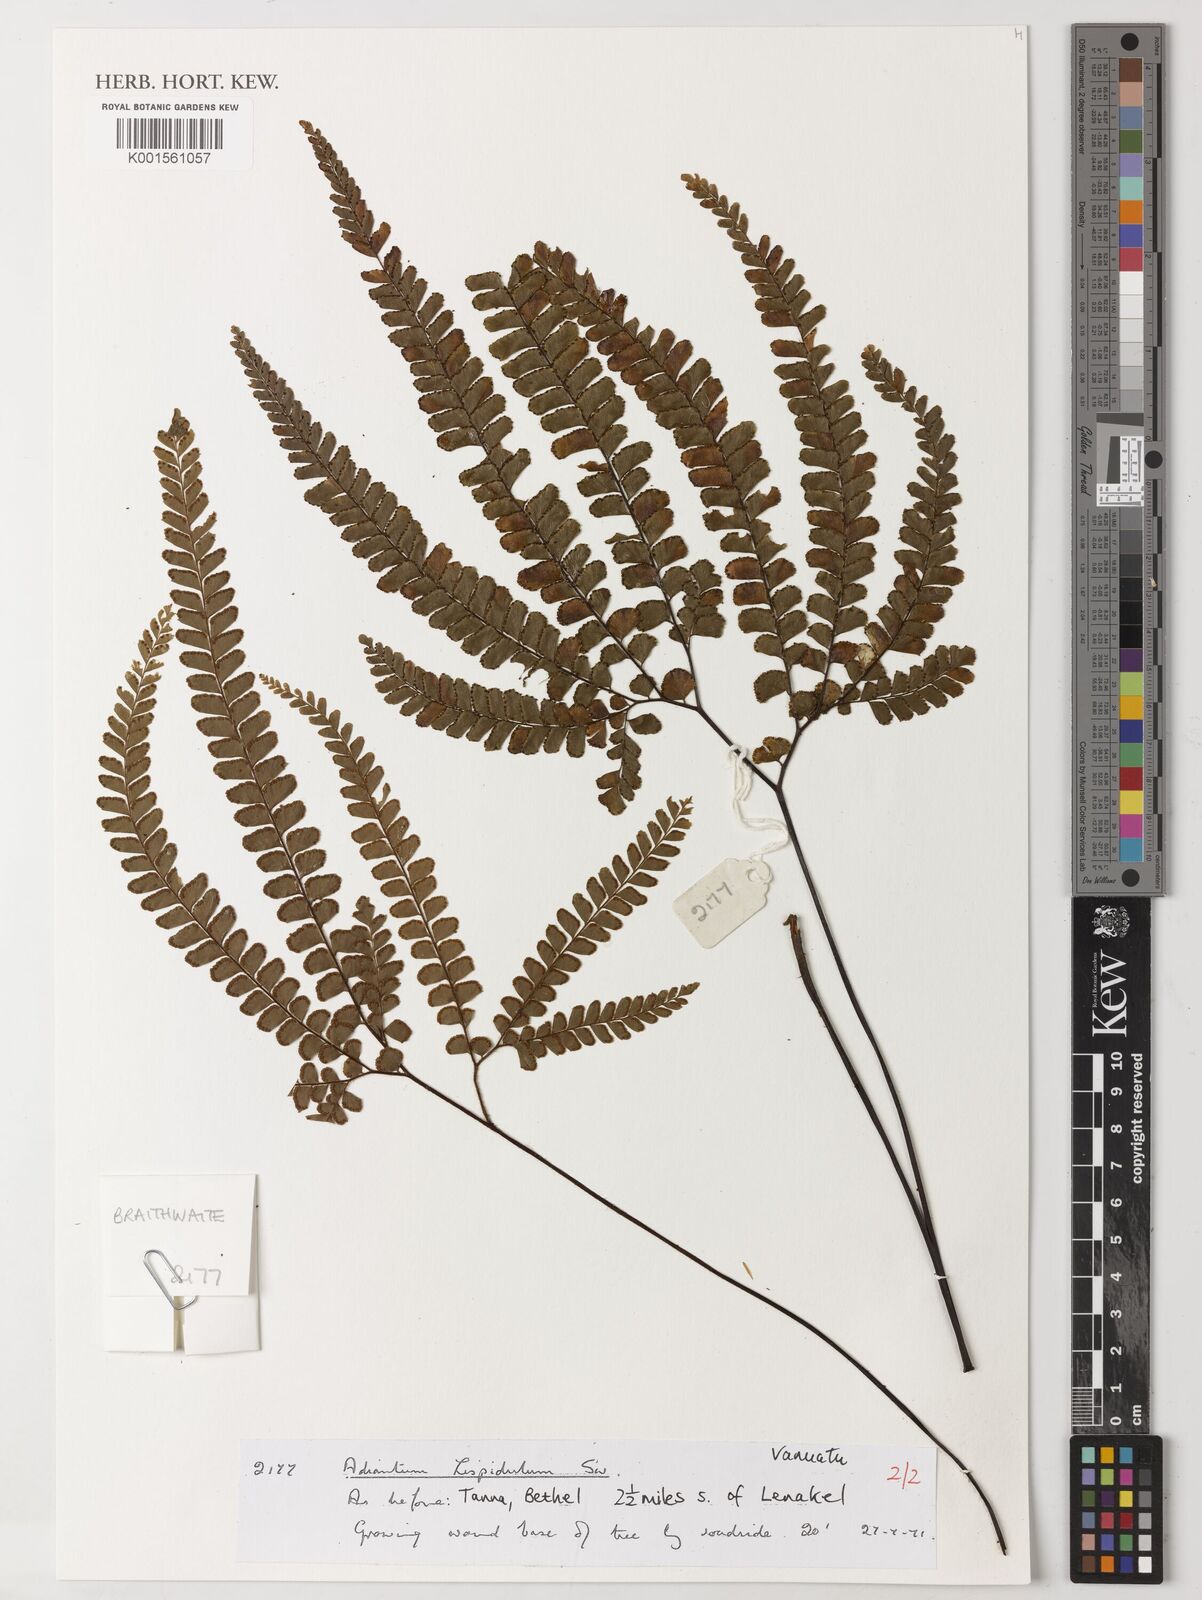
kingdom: Plantae
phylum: Tracheophyta
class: Polypodiopsida
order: Polypodiales
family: Pteridaceae
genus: Adiantum
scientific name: Adiantum hispidulum
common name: Rough maidenhair
